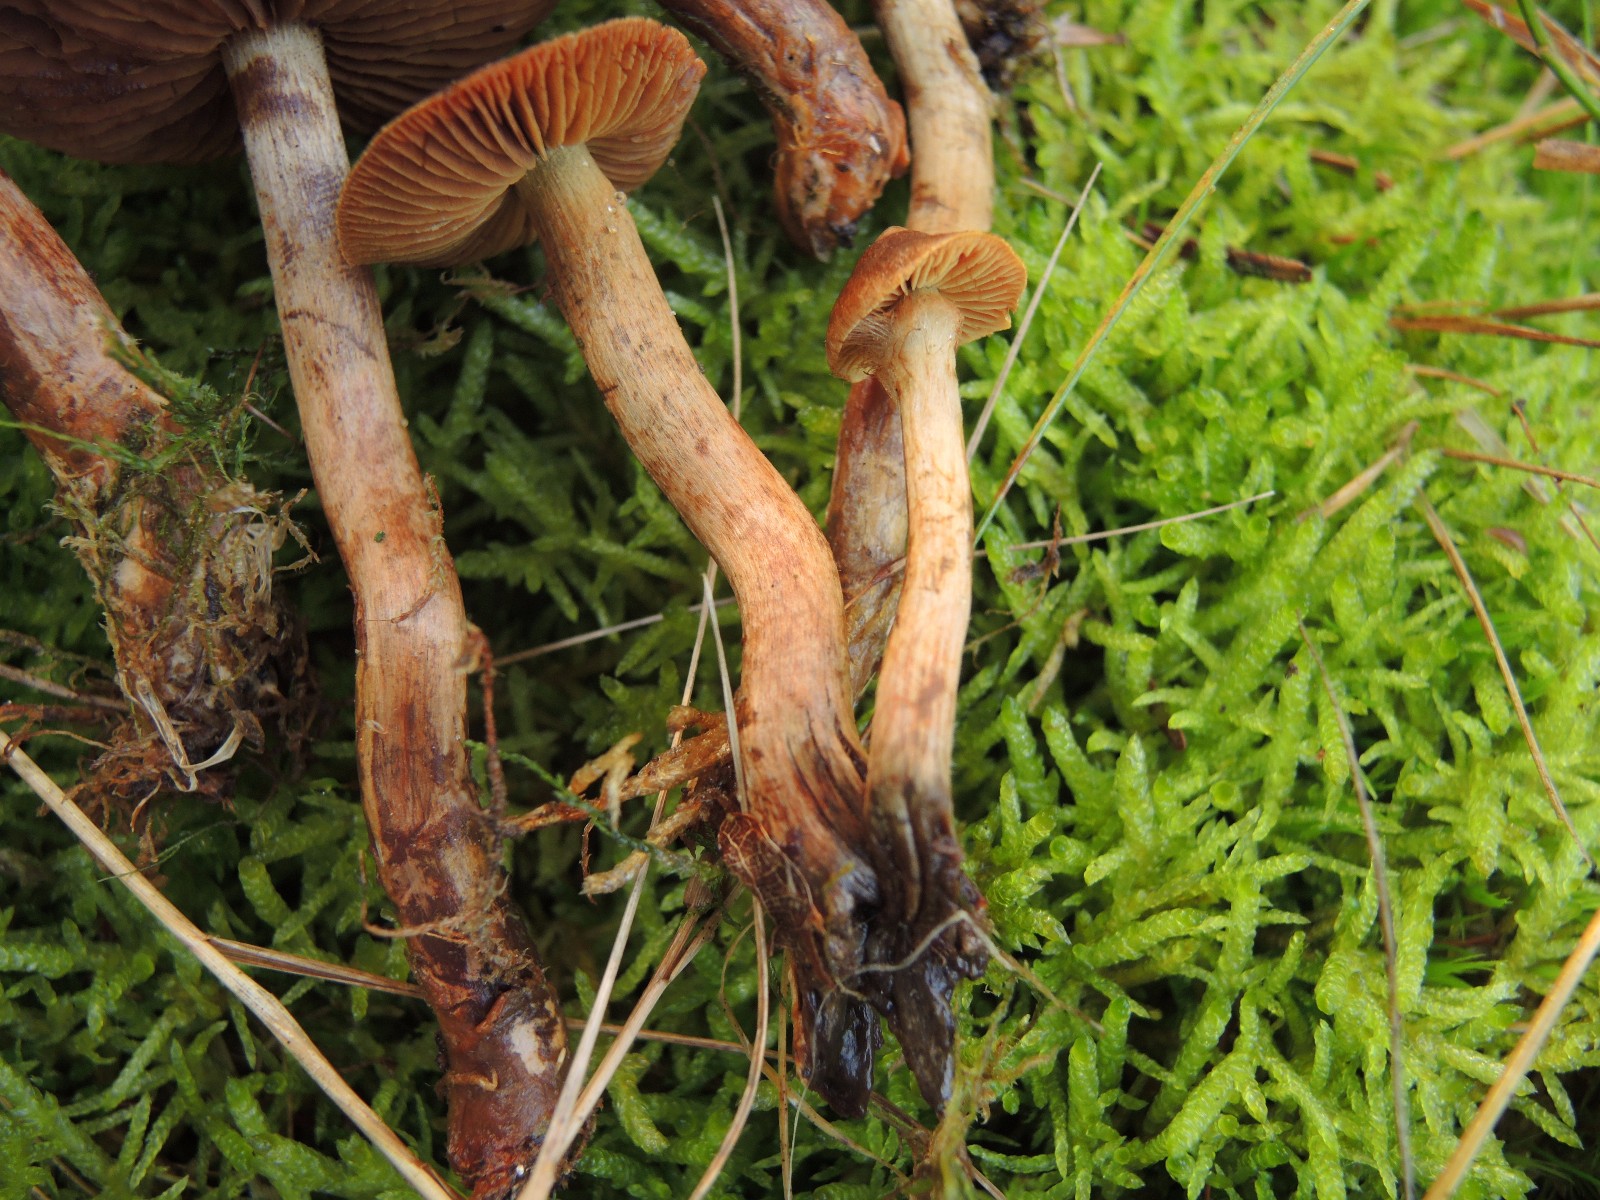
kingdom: Fungi
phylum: Basidiomycota
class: Agaricomycetes
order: Agaricales
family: Cortinariaceae
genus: Cortinarius
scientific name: Cortinarius pellstonianus
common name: zoneret slørhat
